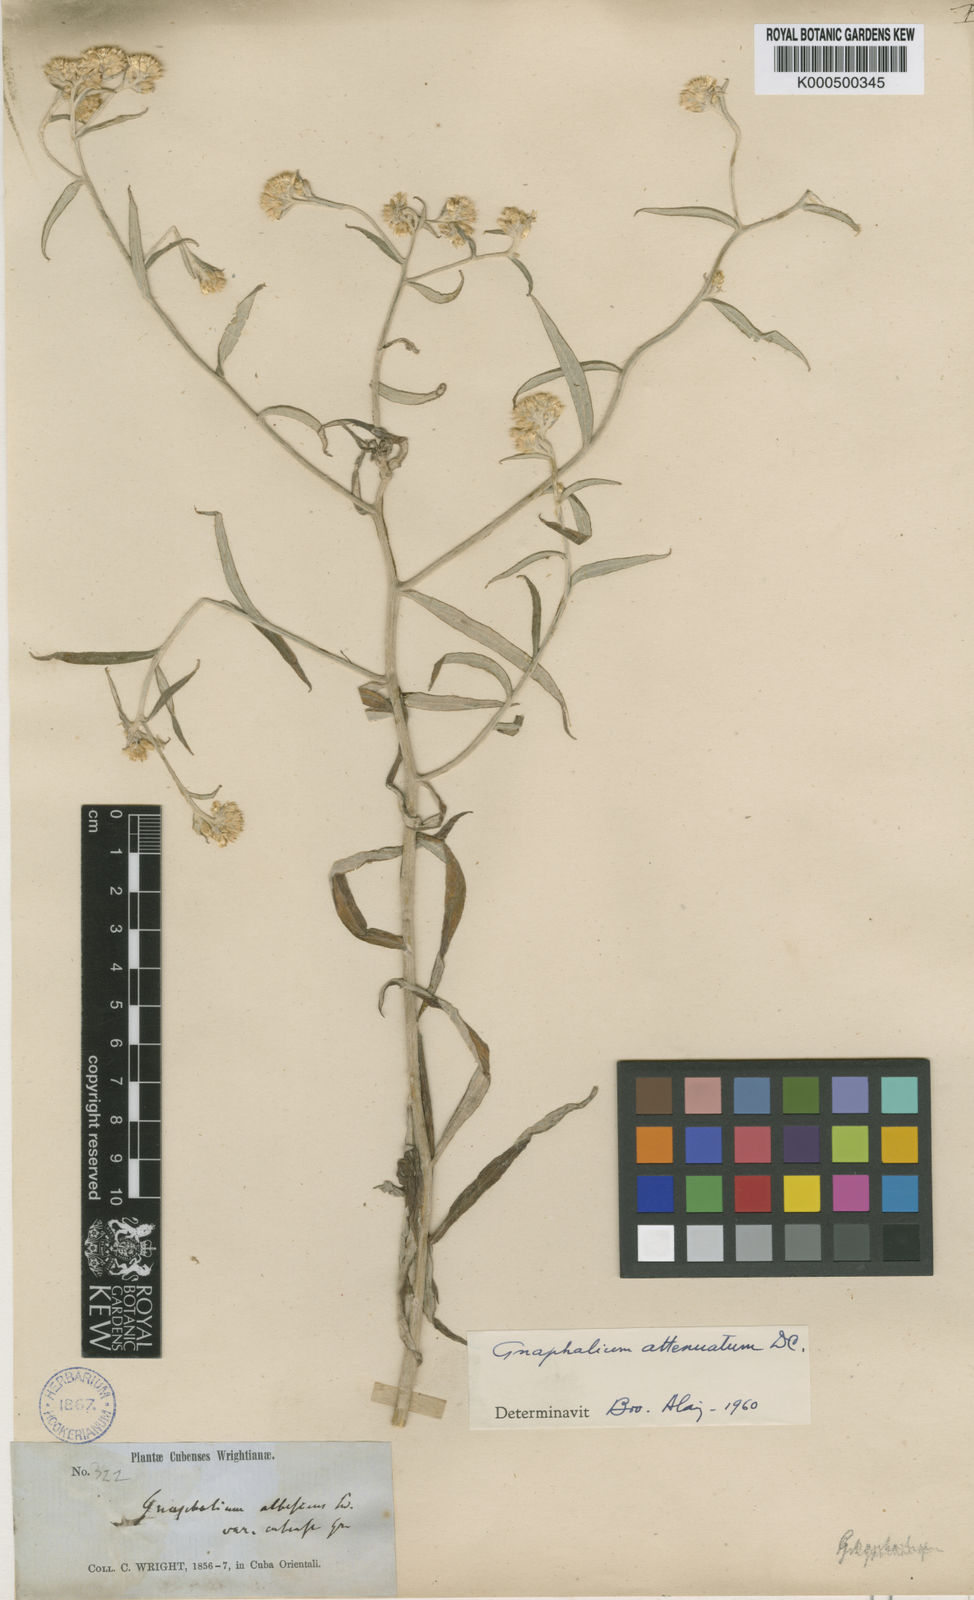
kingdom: Plantae
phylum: Tracheophyta
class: Magnoliopsida
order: Asterales
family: Asteraceae
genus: Pseudognaphalium
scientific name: Pseudognaphalium albescens
